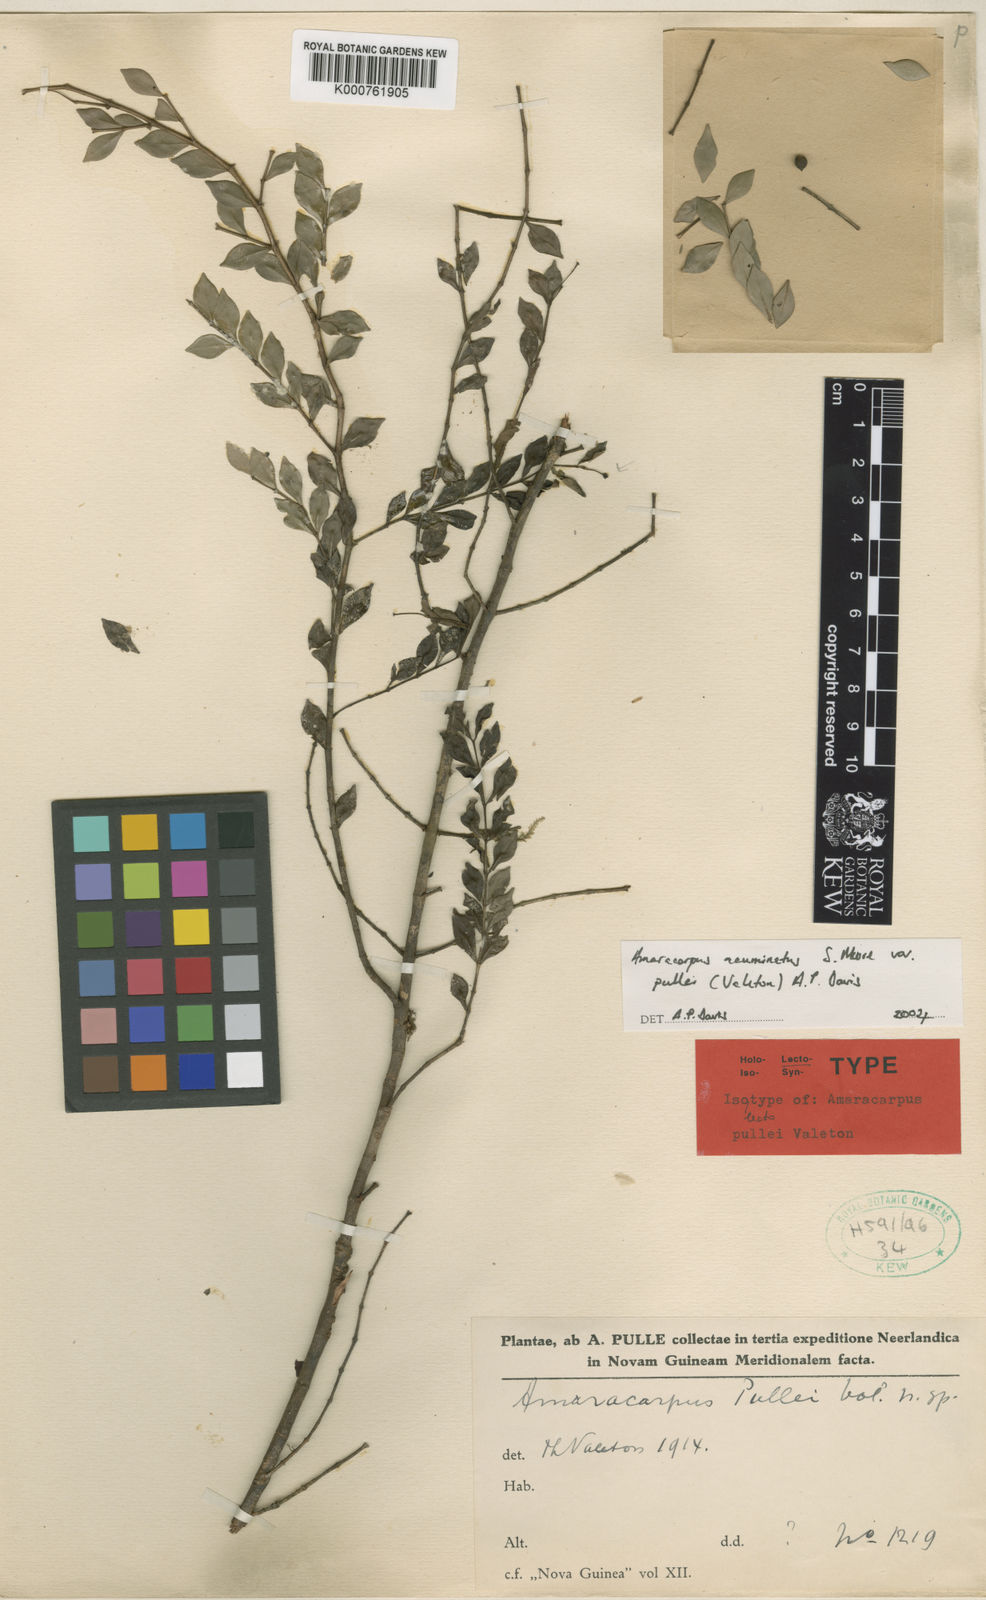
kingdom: Plantae
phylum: Tracheophyta
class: Magnoliopsida
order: Gentianales
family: Rubiaceae
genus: Amaracarpus
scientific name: Amaracarpus acuminatus
